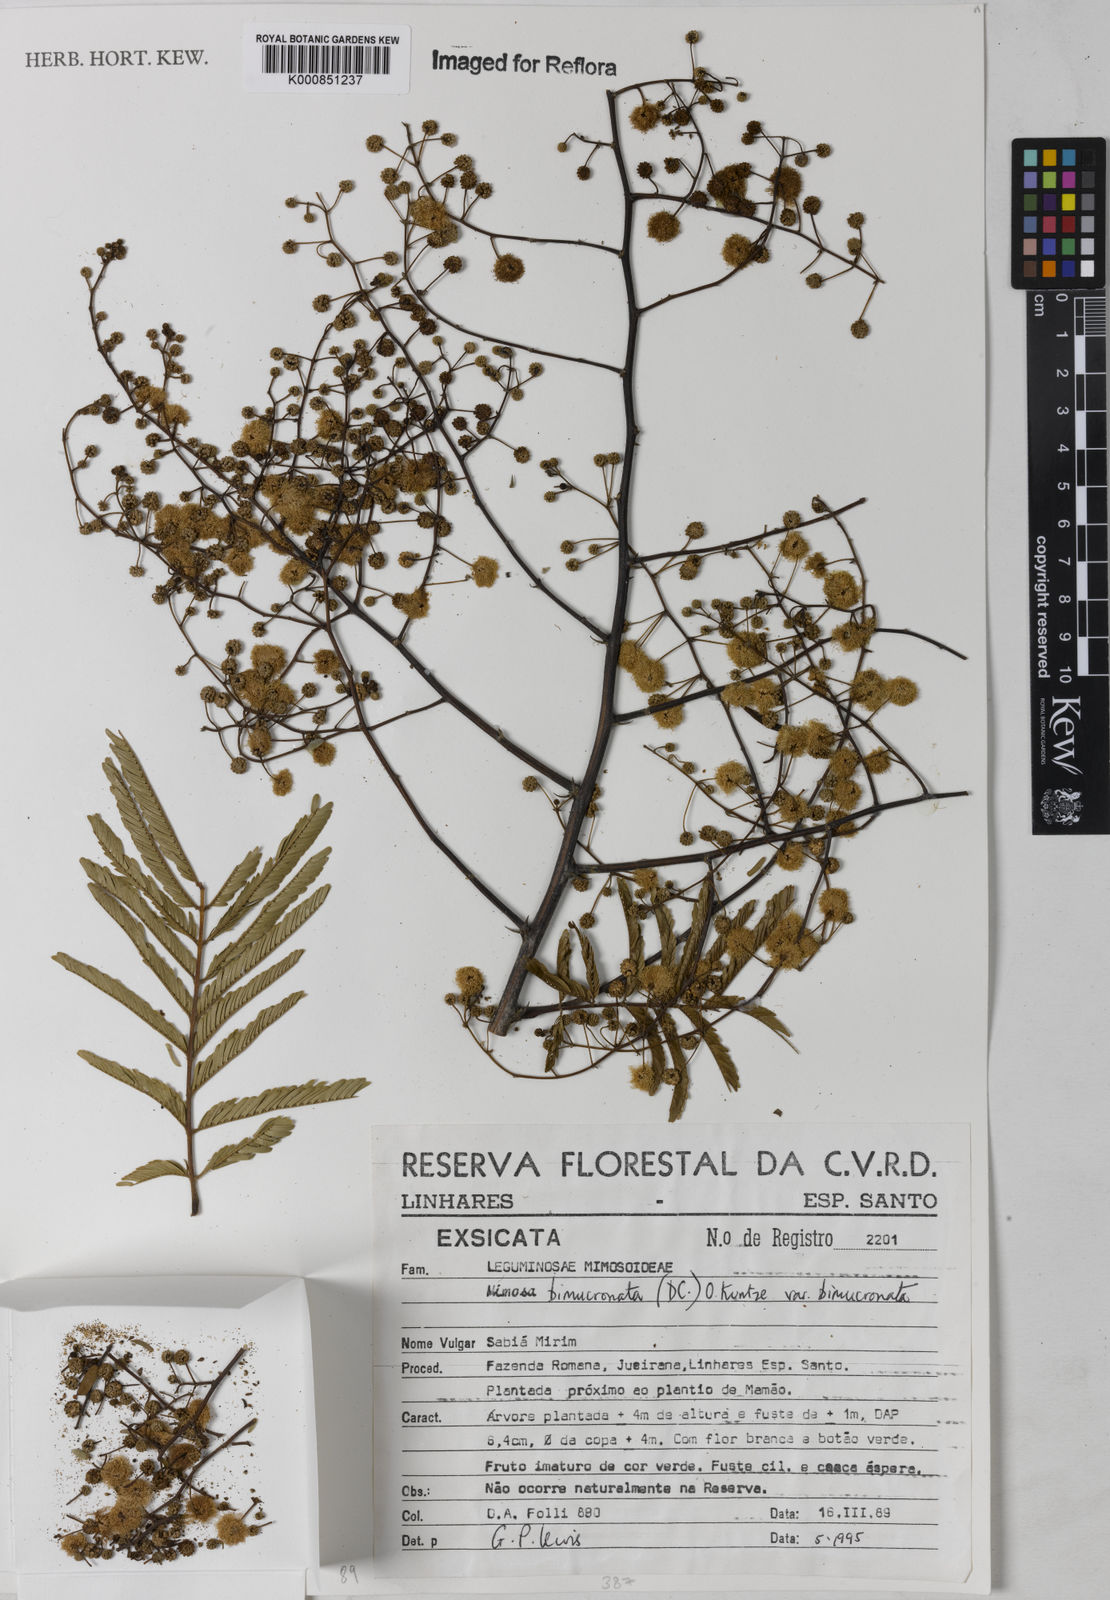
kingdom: Plantae
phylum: Tracheophyta
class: Magnoliopsida
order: Fabales
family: Fabaceae
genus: Mimosa
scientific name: Mimosa bimucronata
